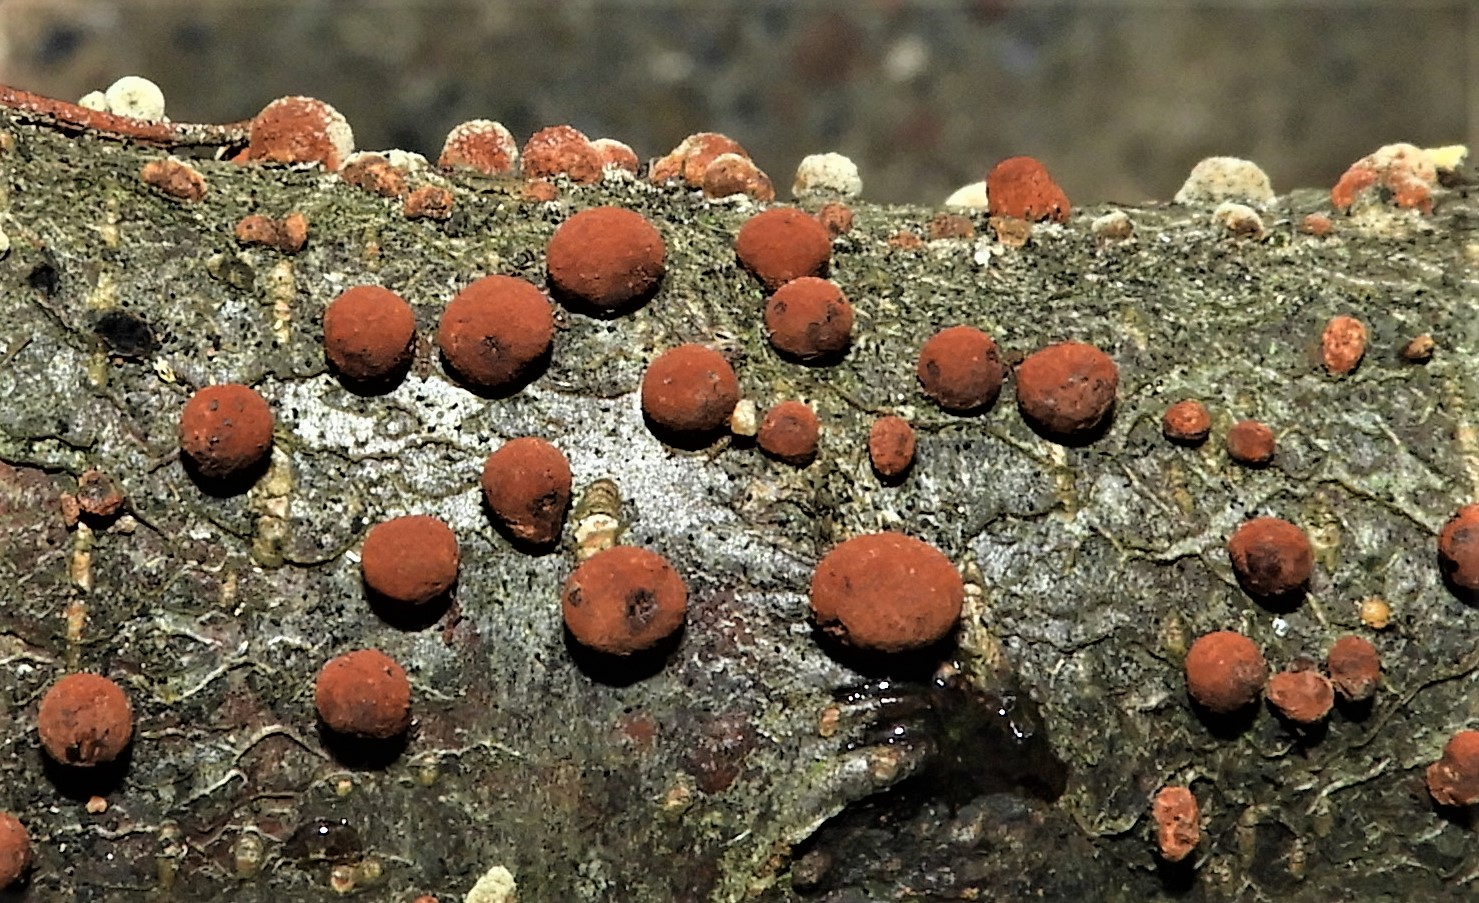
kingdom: Fungi
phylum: Ascomycota
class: Sordariomycetes
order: Xylariales
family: Hypoxylaceae
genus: Hypoxylon
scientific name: Hypoxylon fragiforme
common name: kuljordbær
